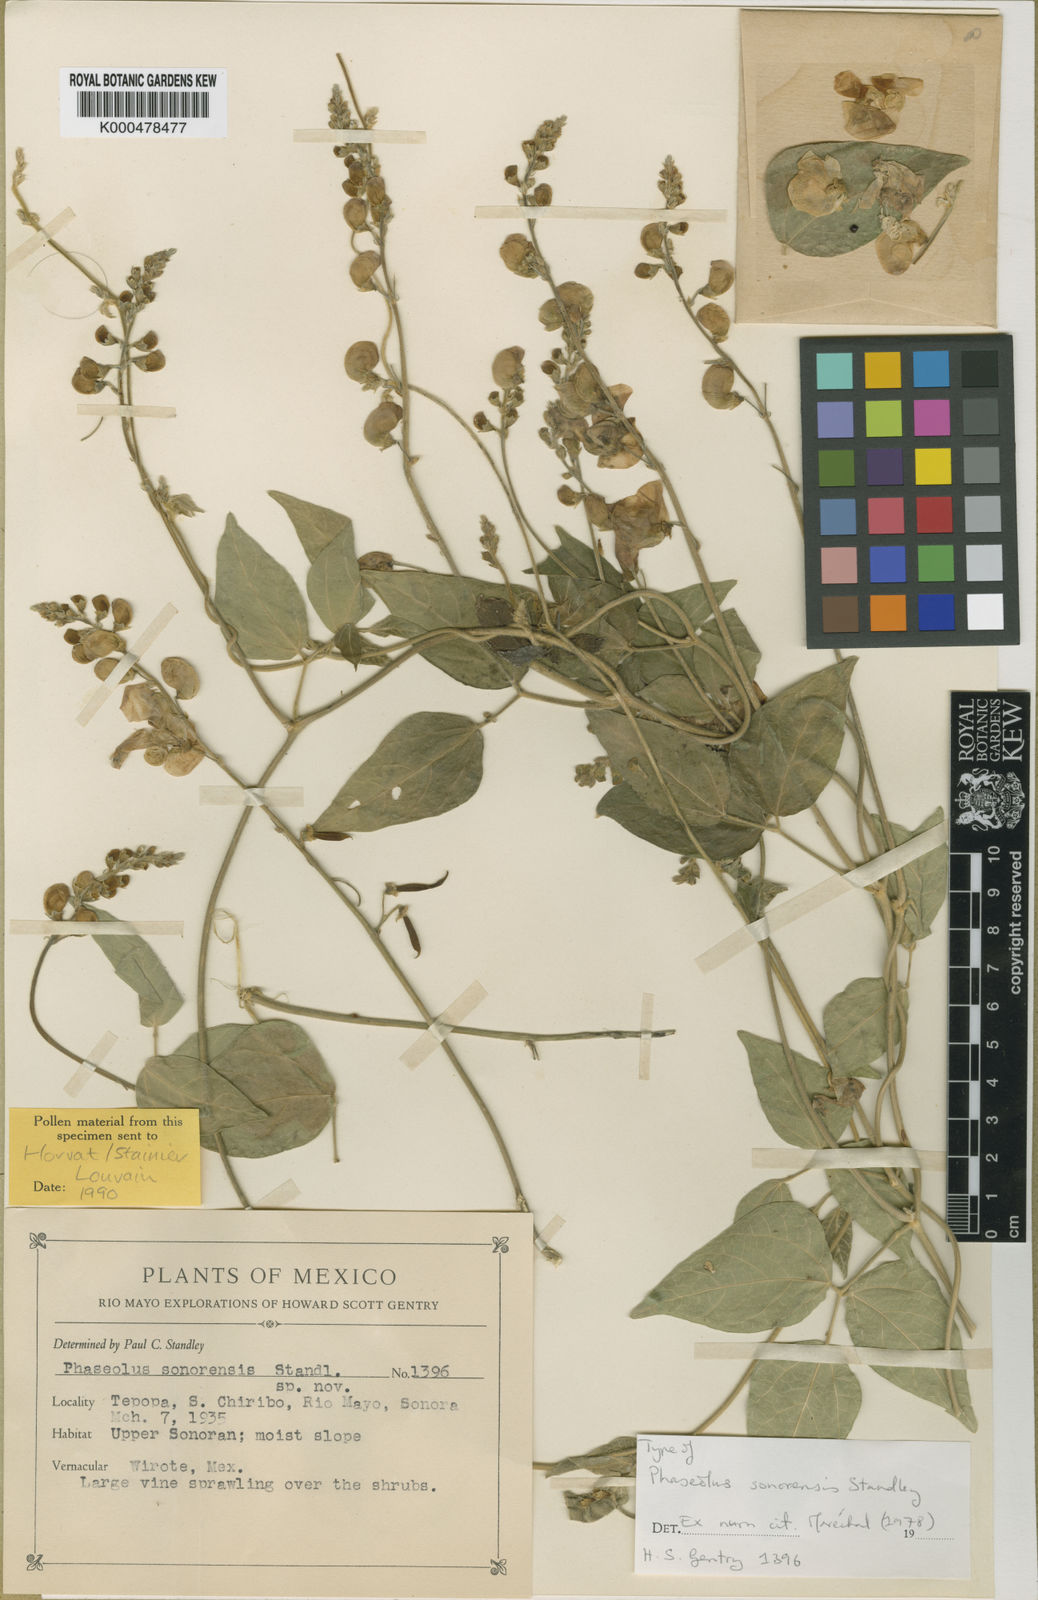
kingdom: Plantae
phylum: Tracheophyta
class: Magnoliopsida
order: Fabales
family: Fabaceae
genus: Phaseolus
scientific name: Phaseolus sonorensis
